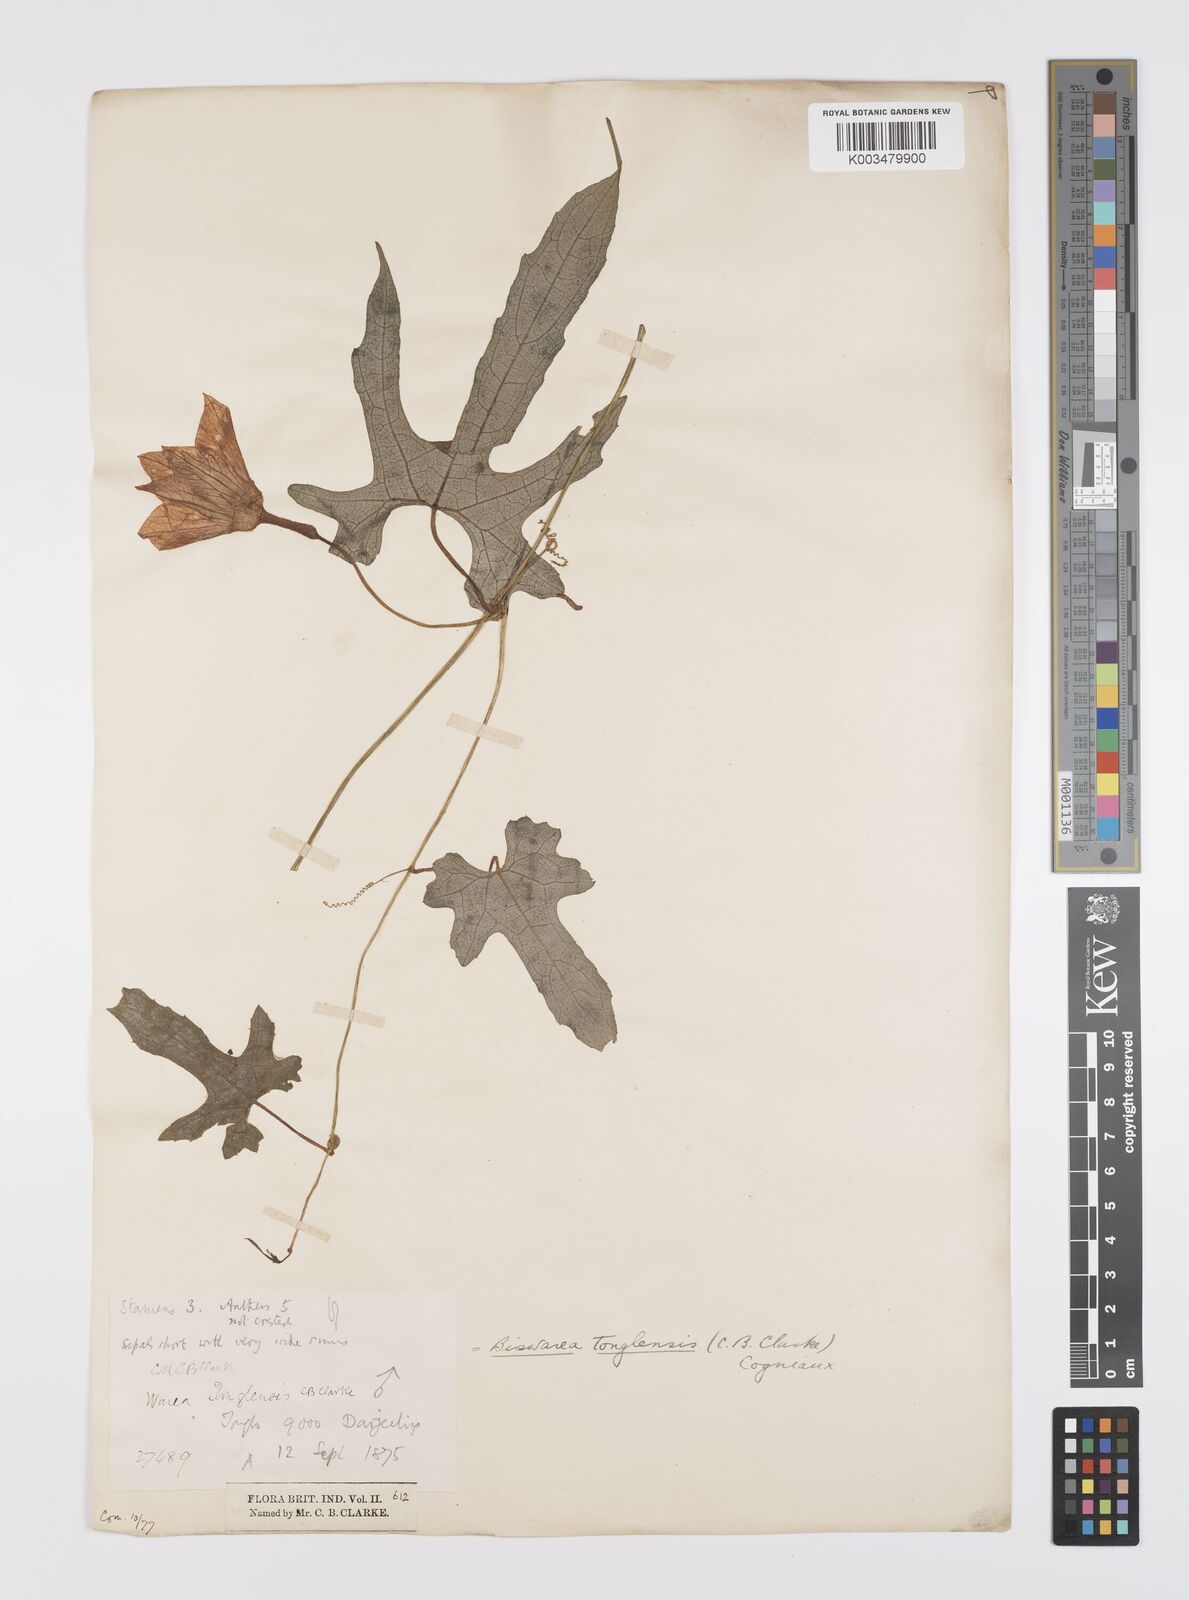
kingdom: Plantae
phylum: Tracheophyta
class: Magnoliopsida
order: Cucurbitales
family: Cucurbitaceae
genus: Benincasa
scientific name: Benincasa
